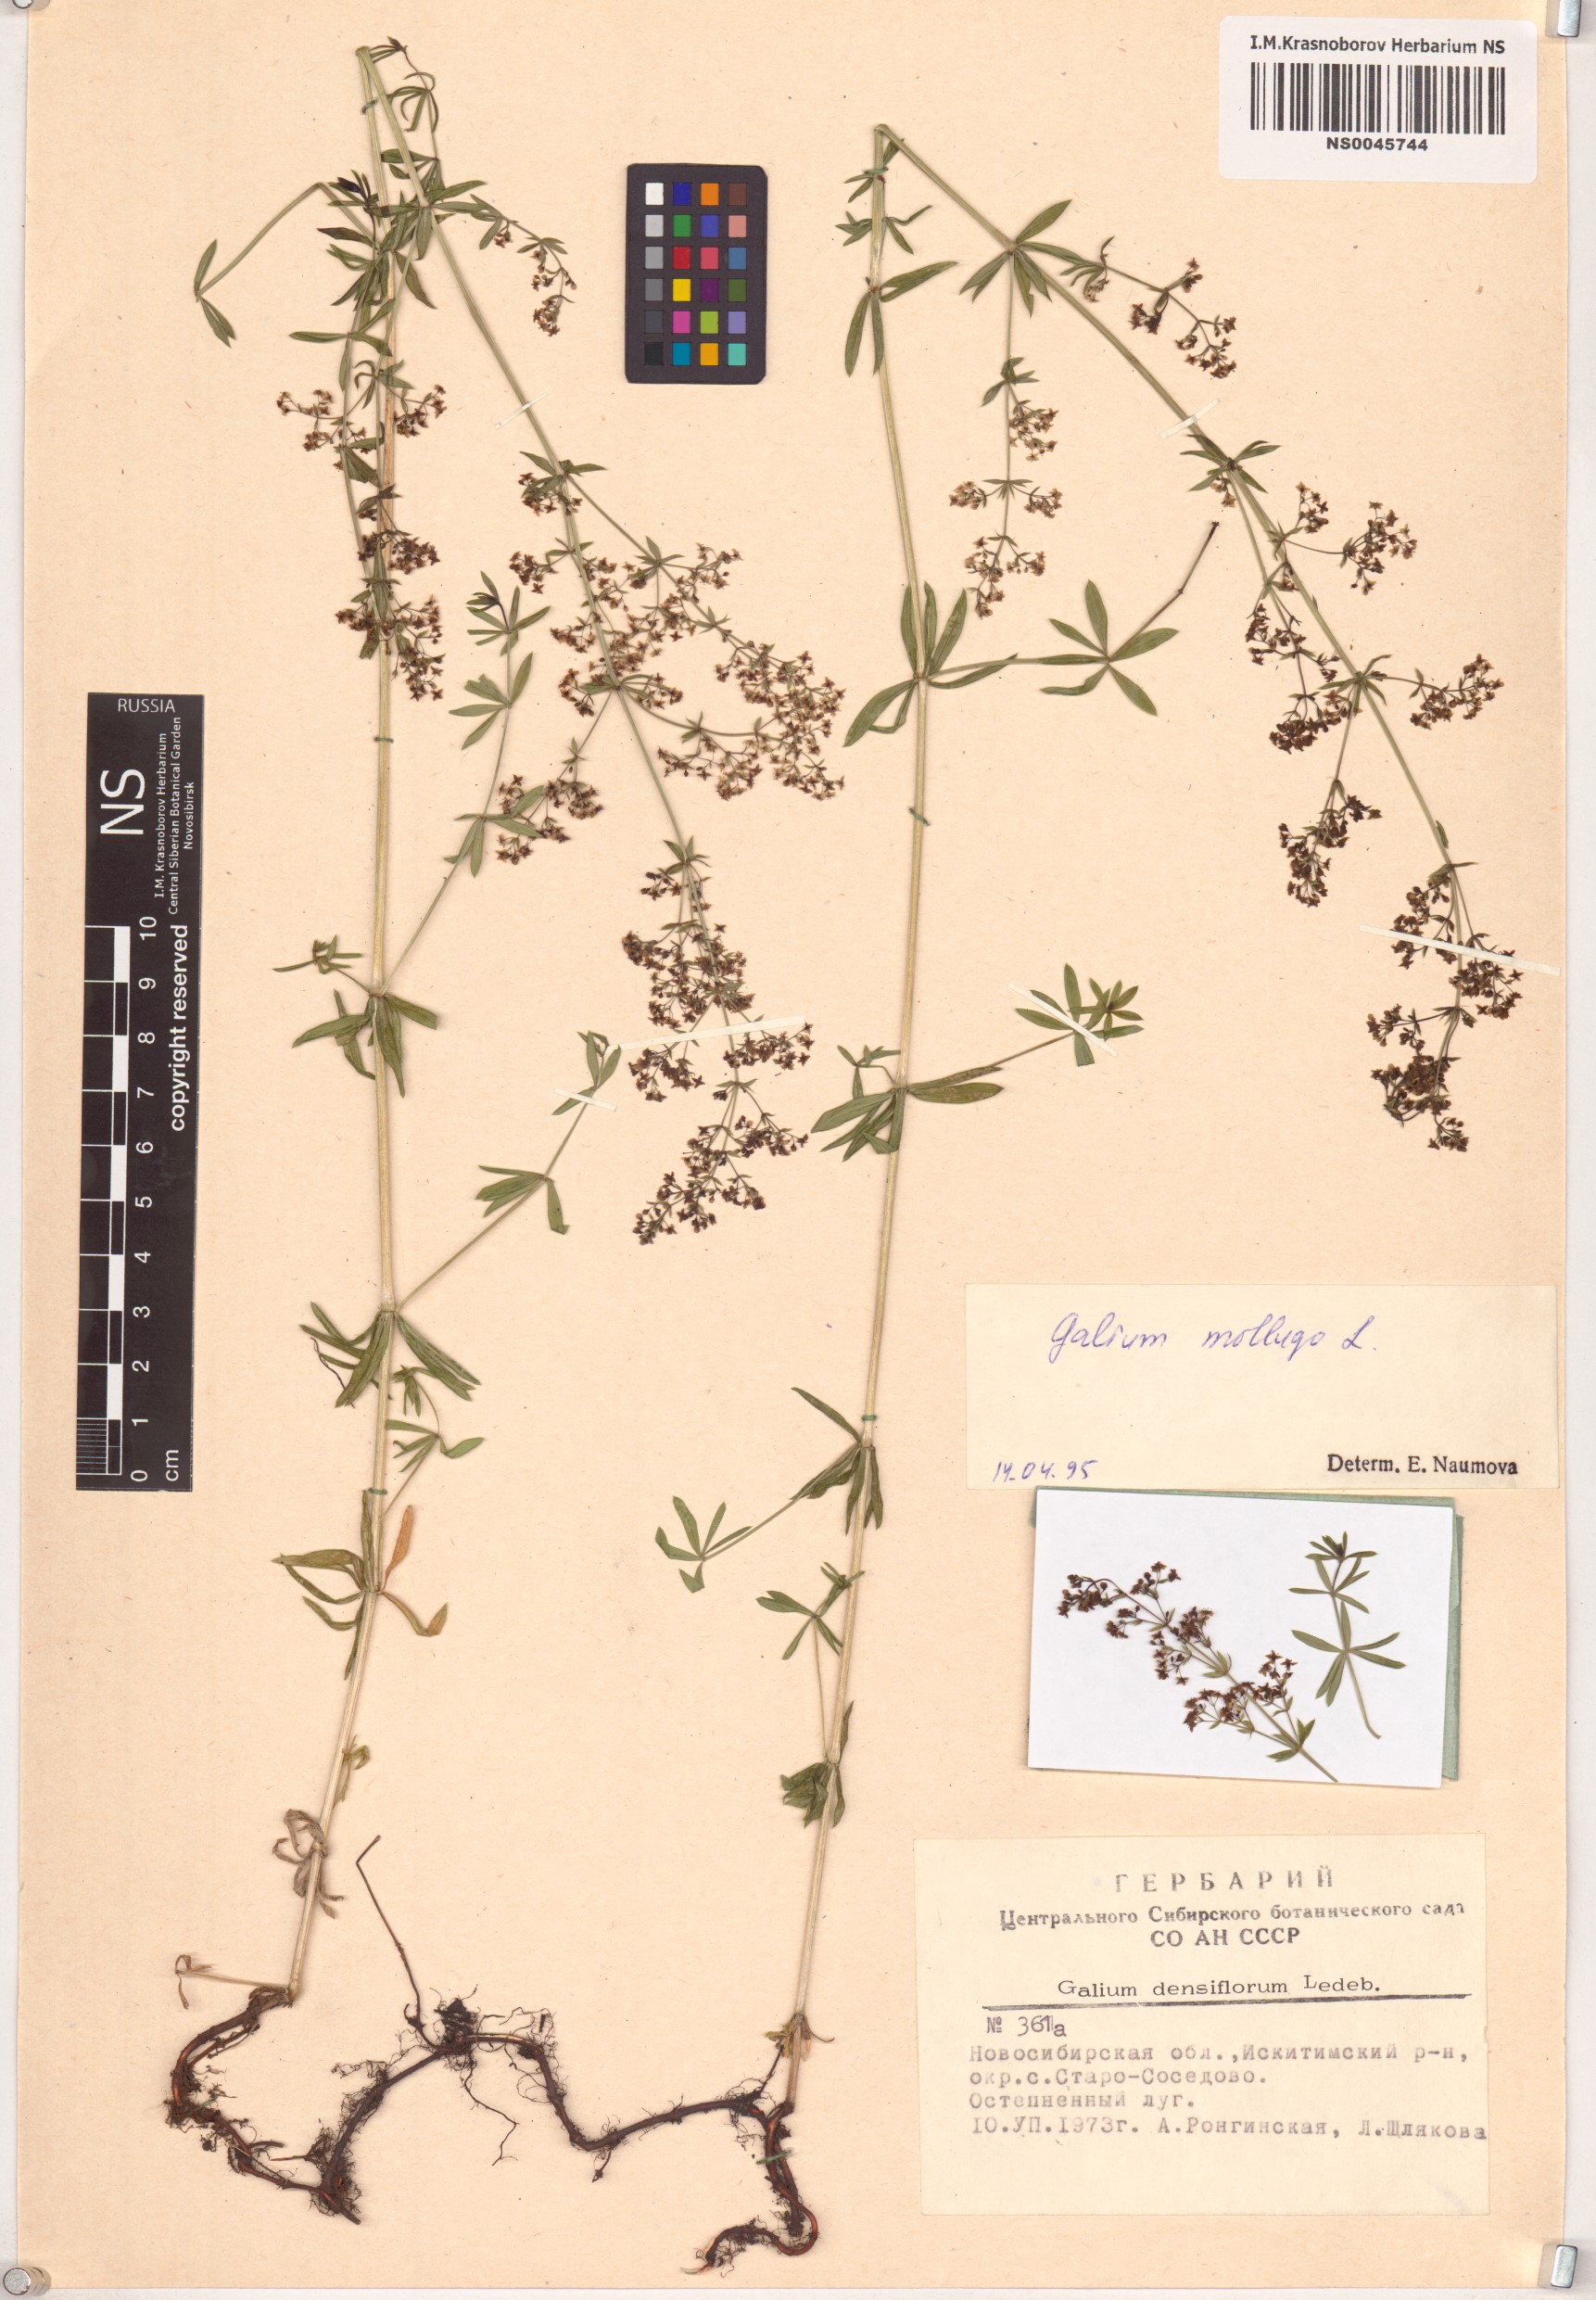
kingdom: Plantae
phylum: Tracheophyta
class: Magnoliopsida
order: Gentianales
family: Rubiaceae
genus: Galium
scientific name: Galium mollugo
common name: Hedge bedstraw
